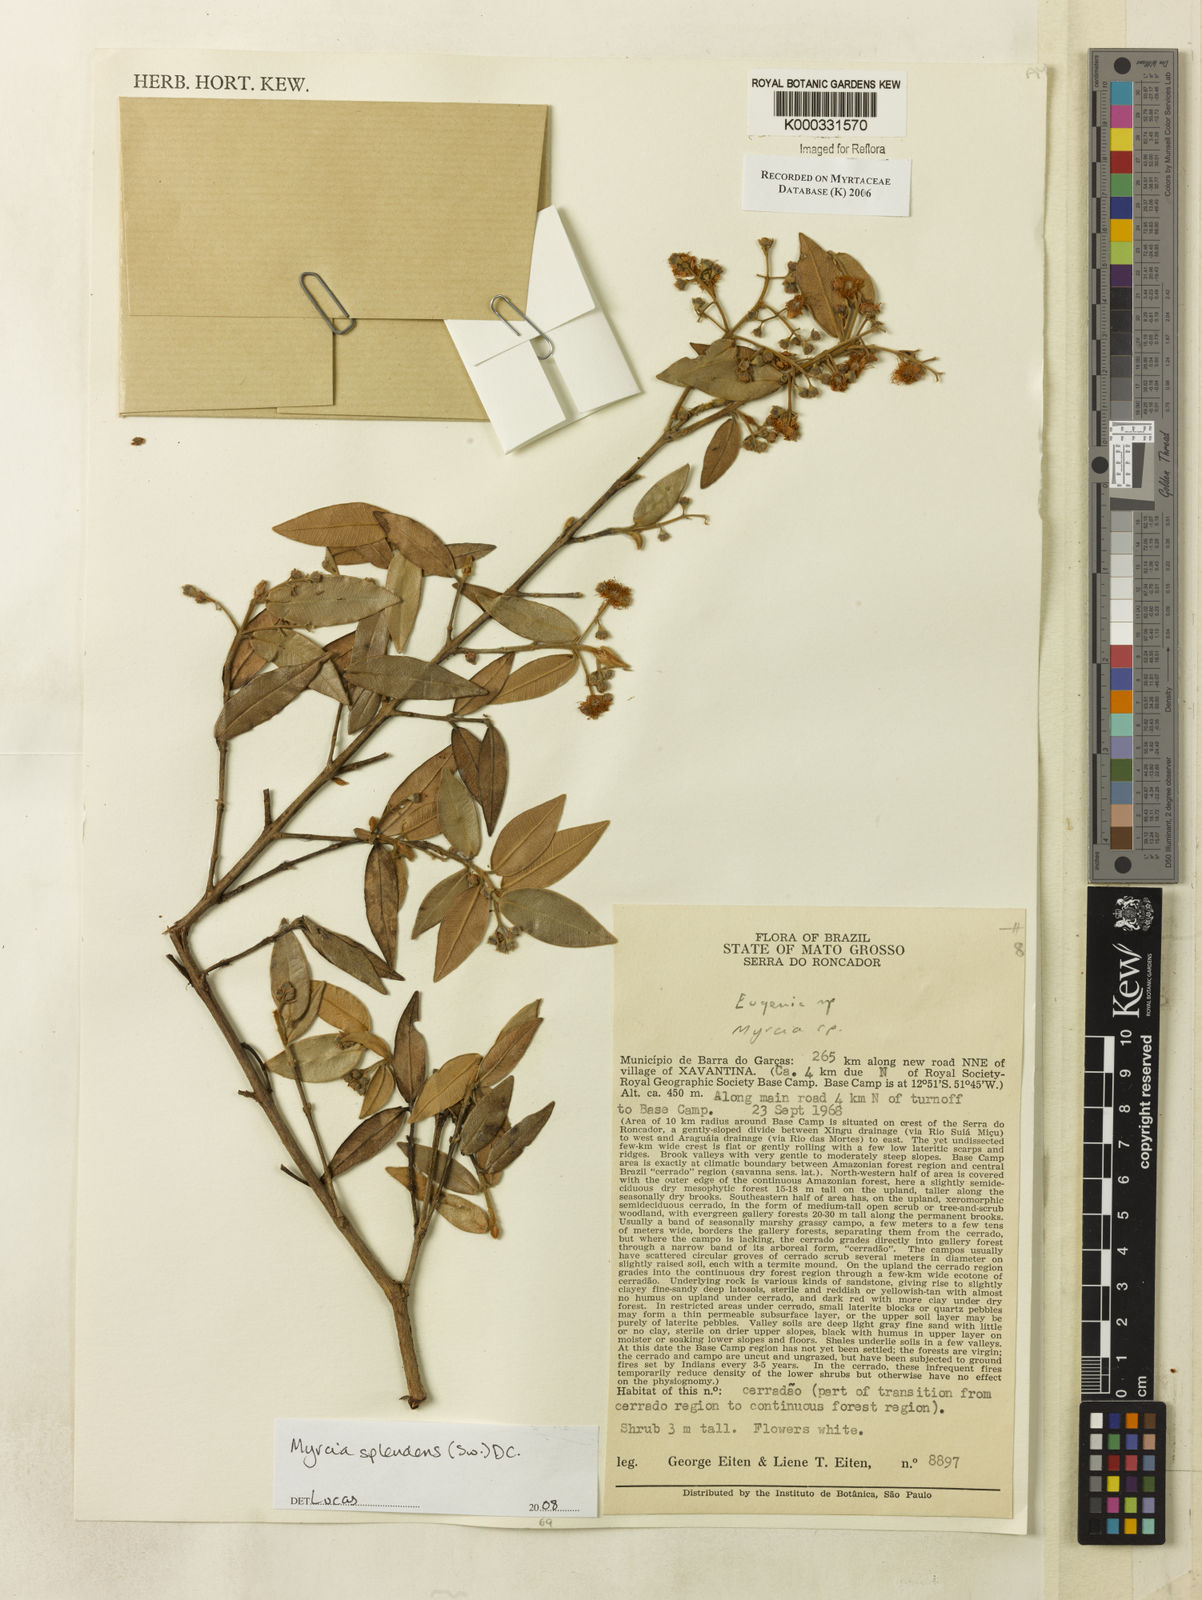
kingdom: Plantae
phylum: Tracheophyta
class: Magnoliopsida
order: Myrtales
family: Myrtaceae
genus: Myrcia
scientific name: Myrcia
